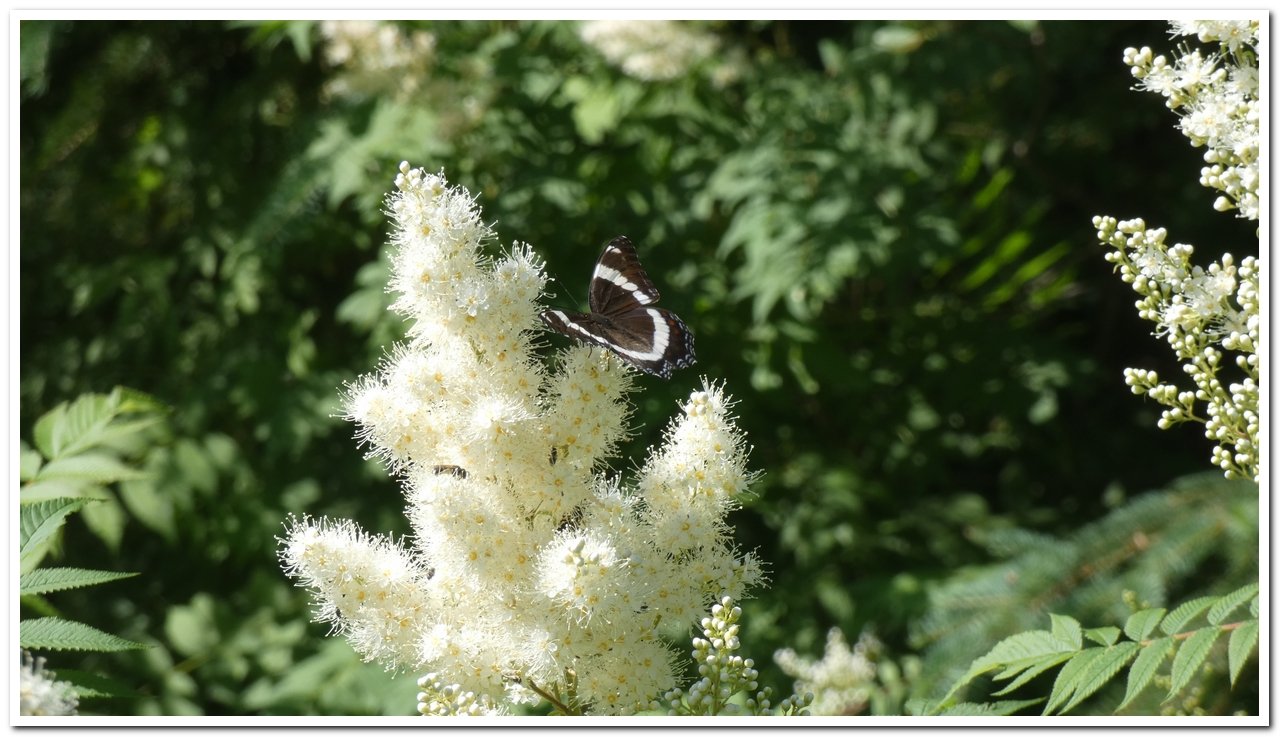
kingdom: Animalia
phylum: Arthropoda
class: Insecta
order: Lepidoptera
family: Nymphalidae
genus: Limenitis
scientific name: Limenitis arthemis
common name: Red-spotted Admiral
